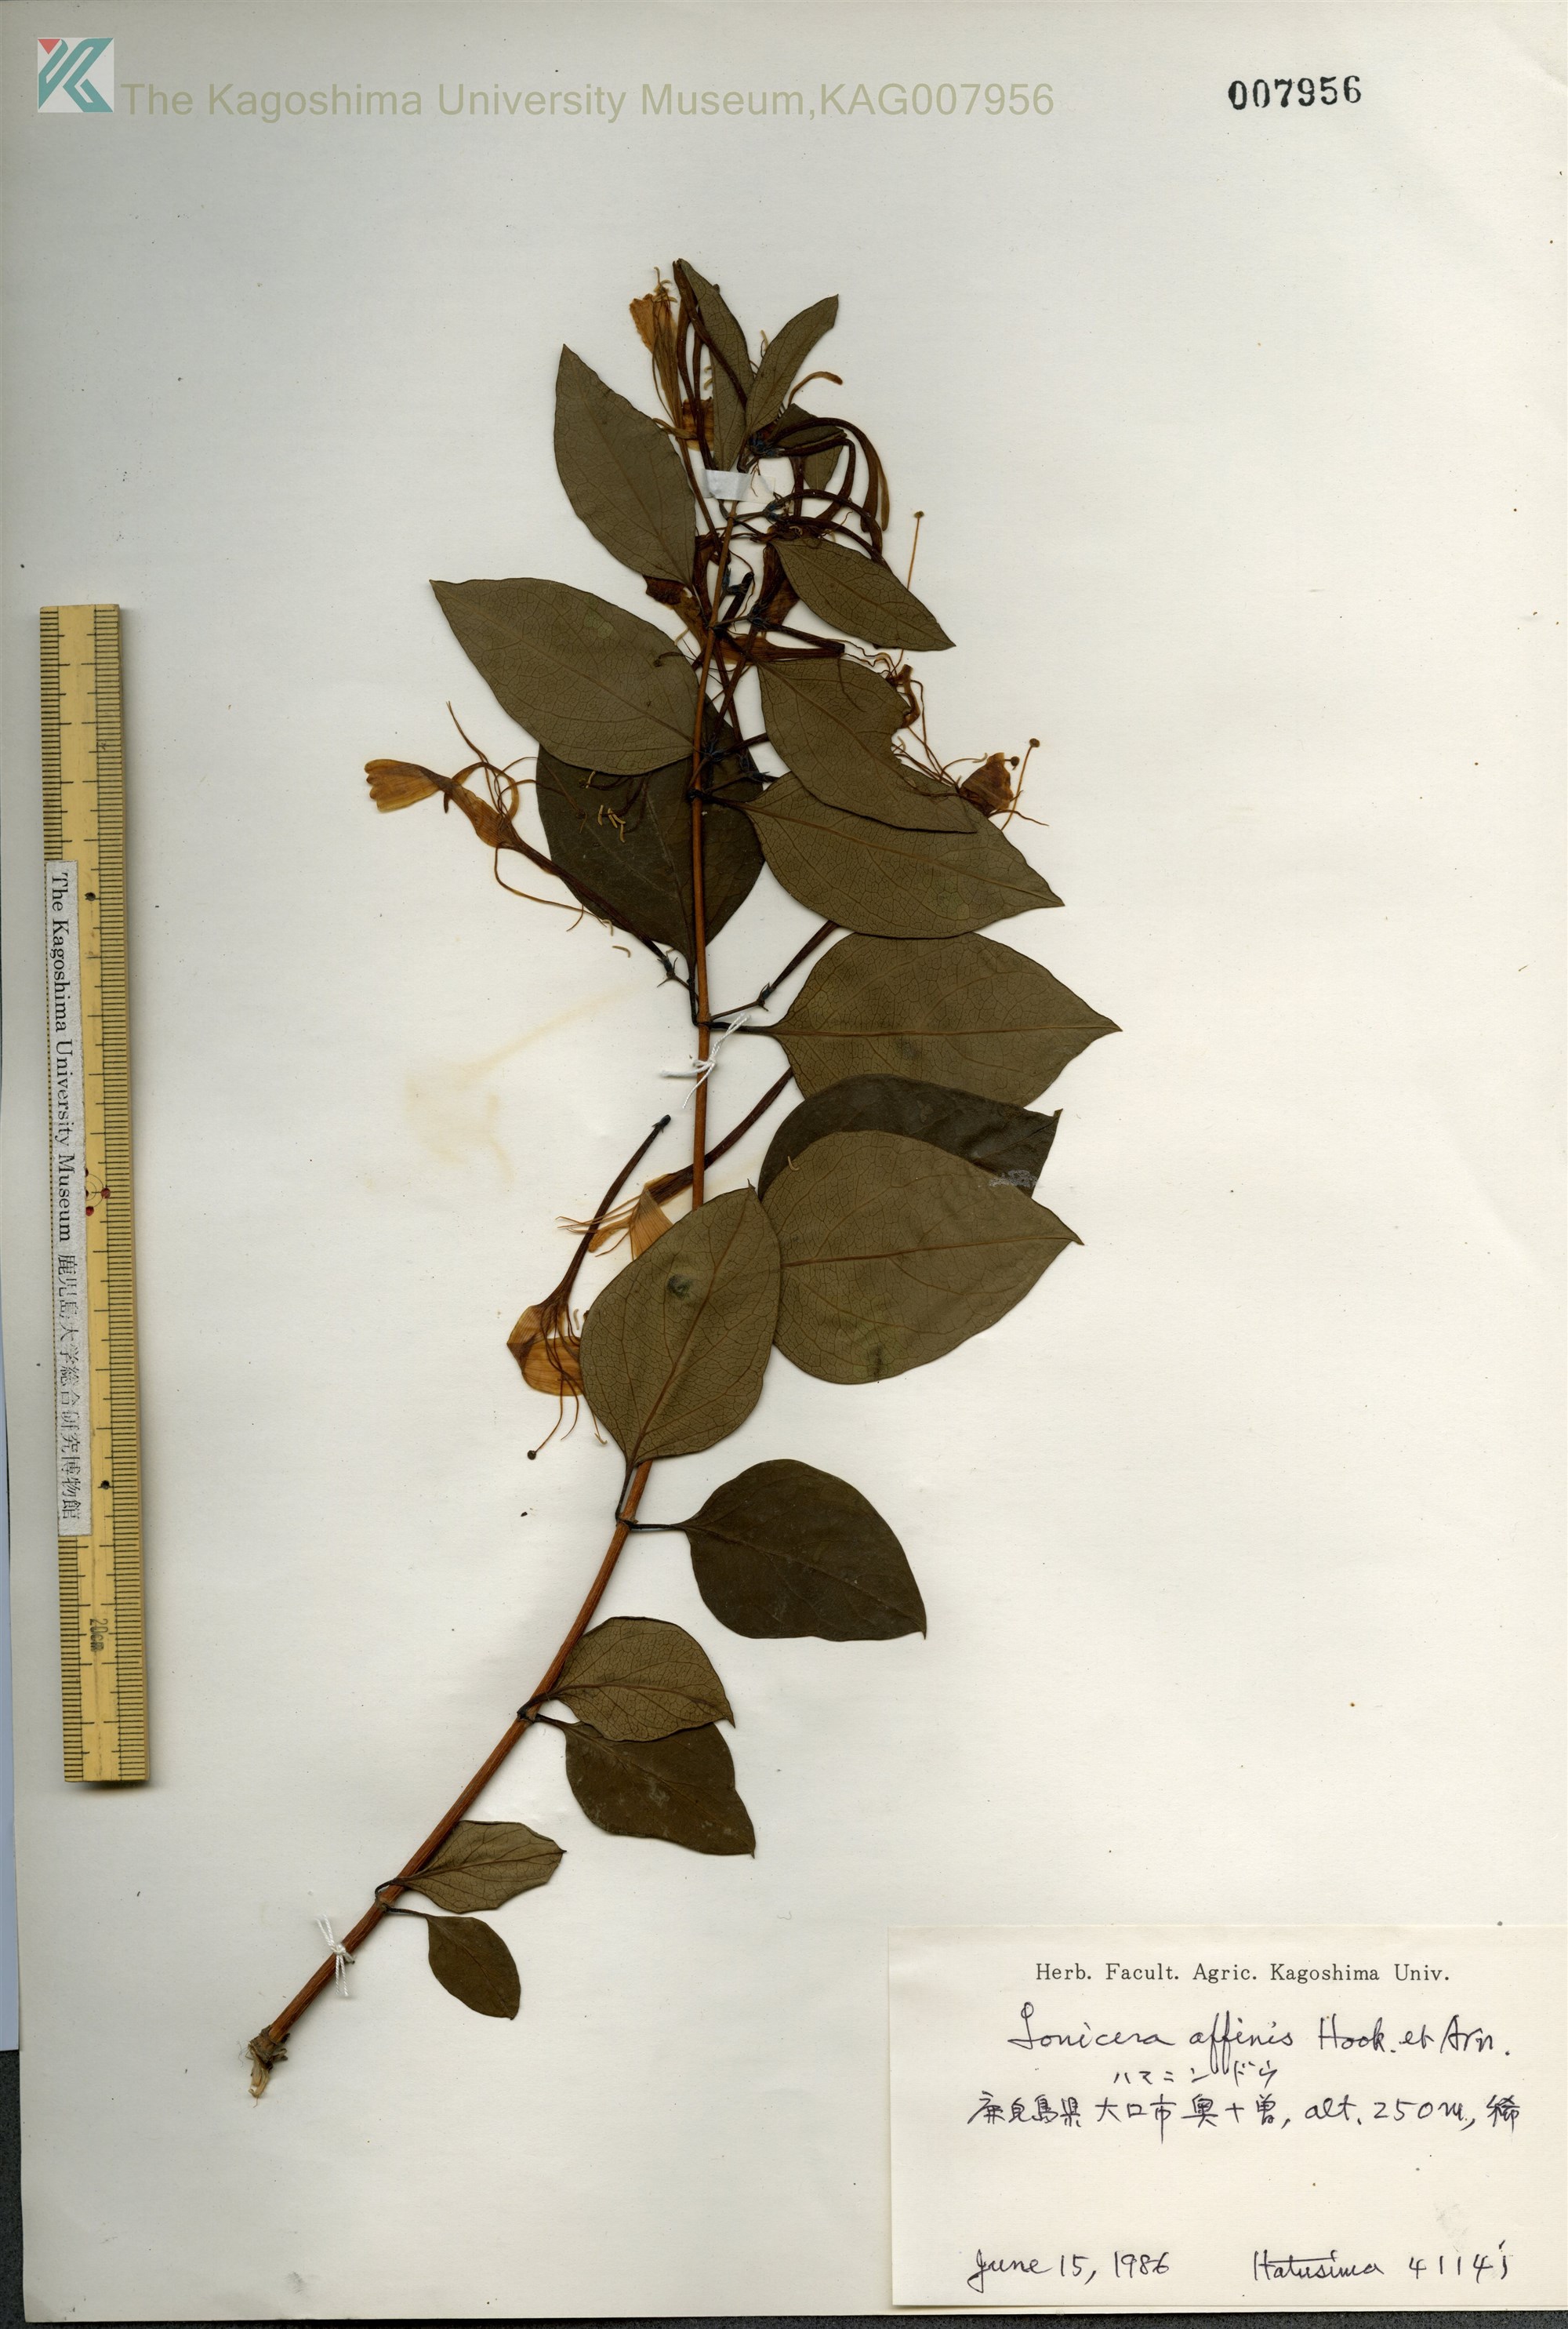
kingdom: Plantae
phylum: Tracheophyta
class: Magnoliopsida
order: Dipsacales
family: Caprifoliaceae
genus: Lonicera
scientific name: Lonicera affinis
